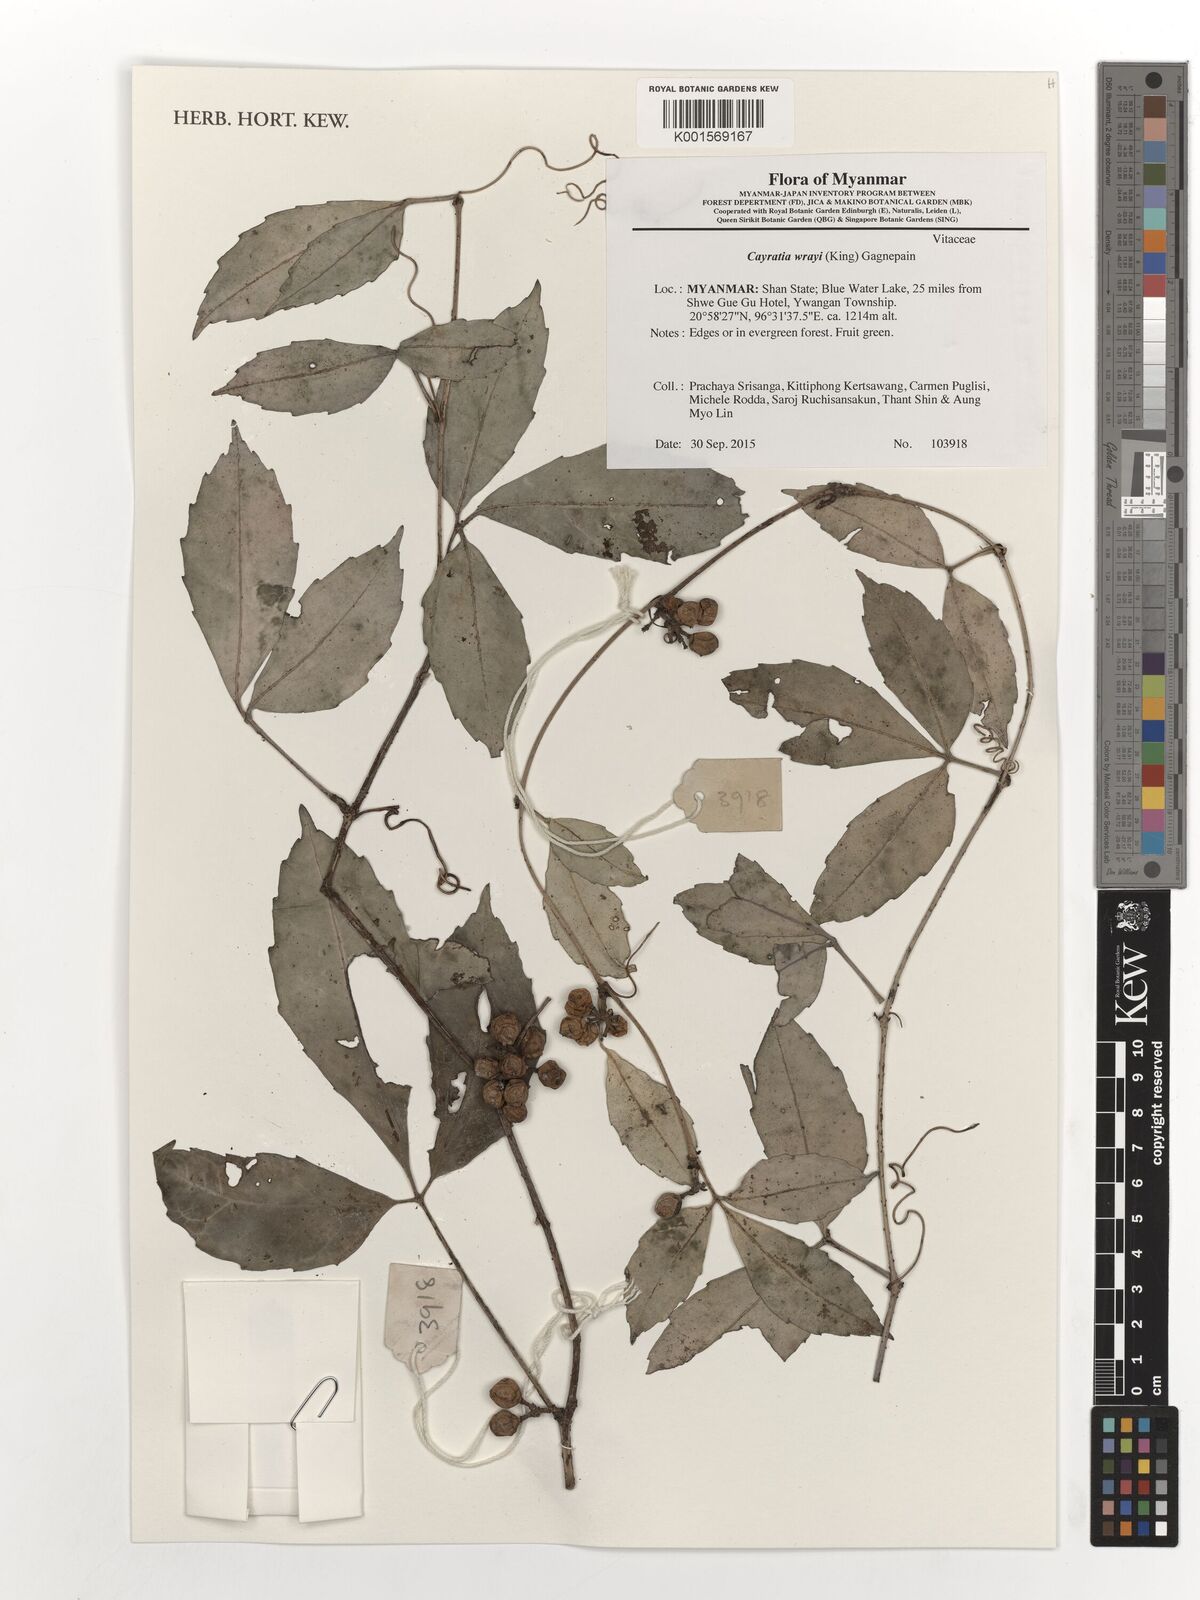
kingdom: Plantae
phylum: Tracheophyta
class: Magnoliopsida
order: Vitales
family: Vitaceae
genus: Cayratia
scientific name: Cayratia mollissima
